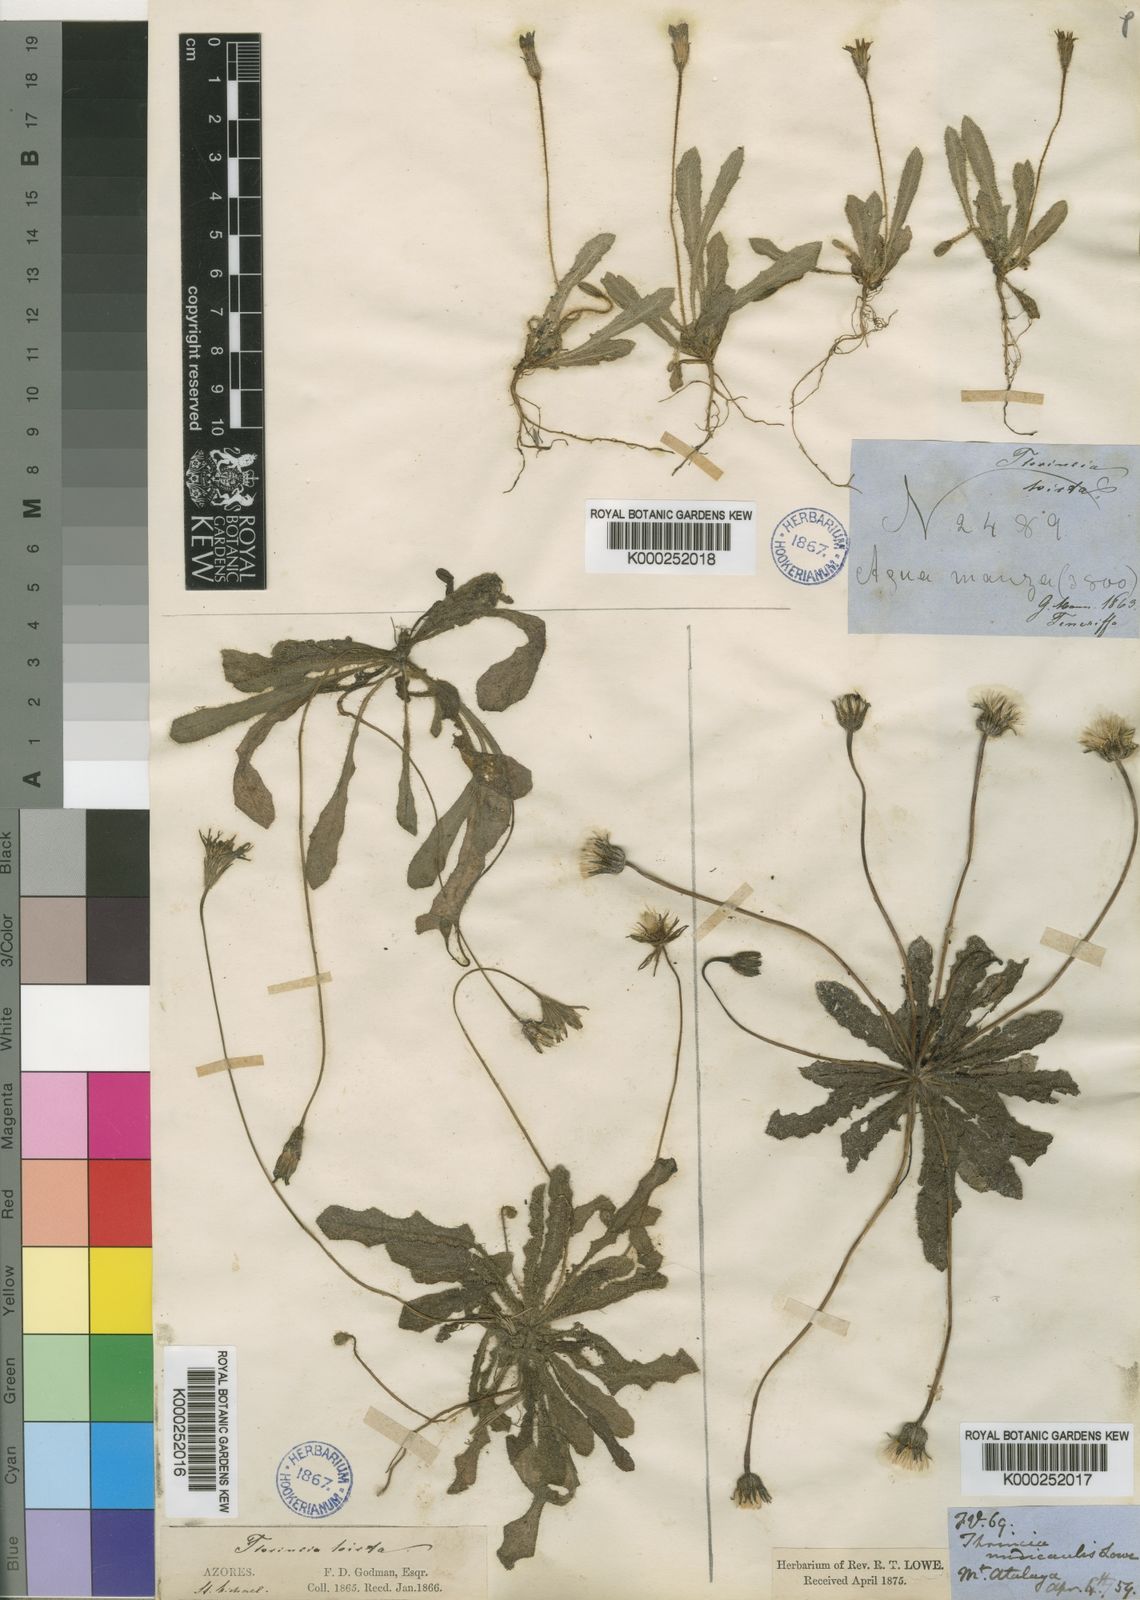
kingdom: Plantae
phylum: Tracheophyta
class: Magnoliopsida
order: Asterales
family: Asteraceae
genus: Leontodon
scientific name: Leontodon
